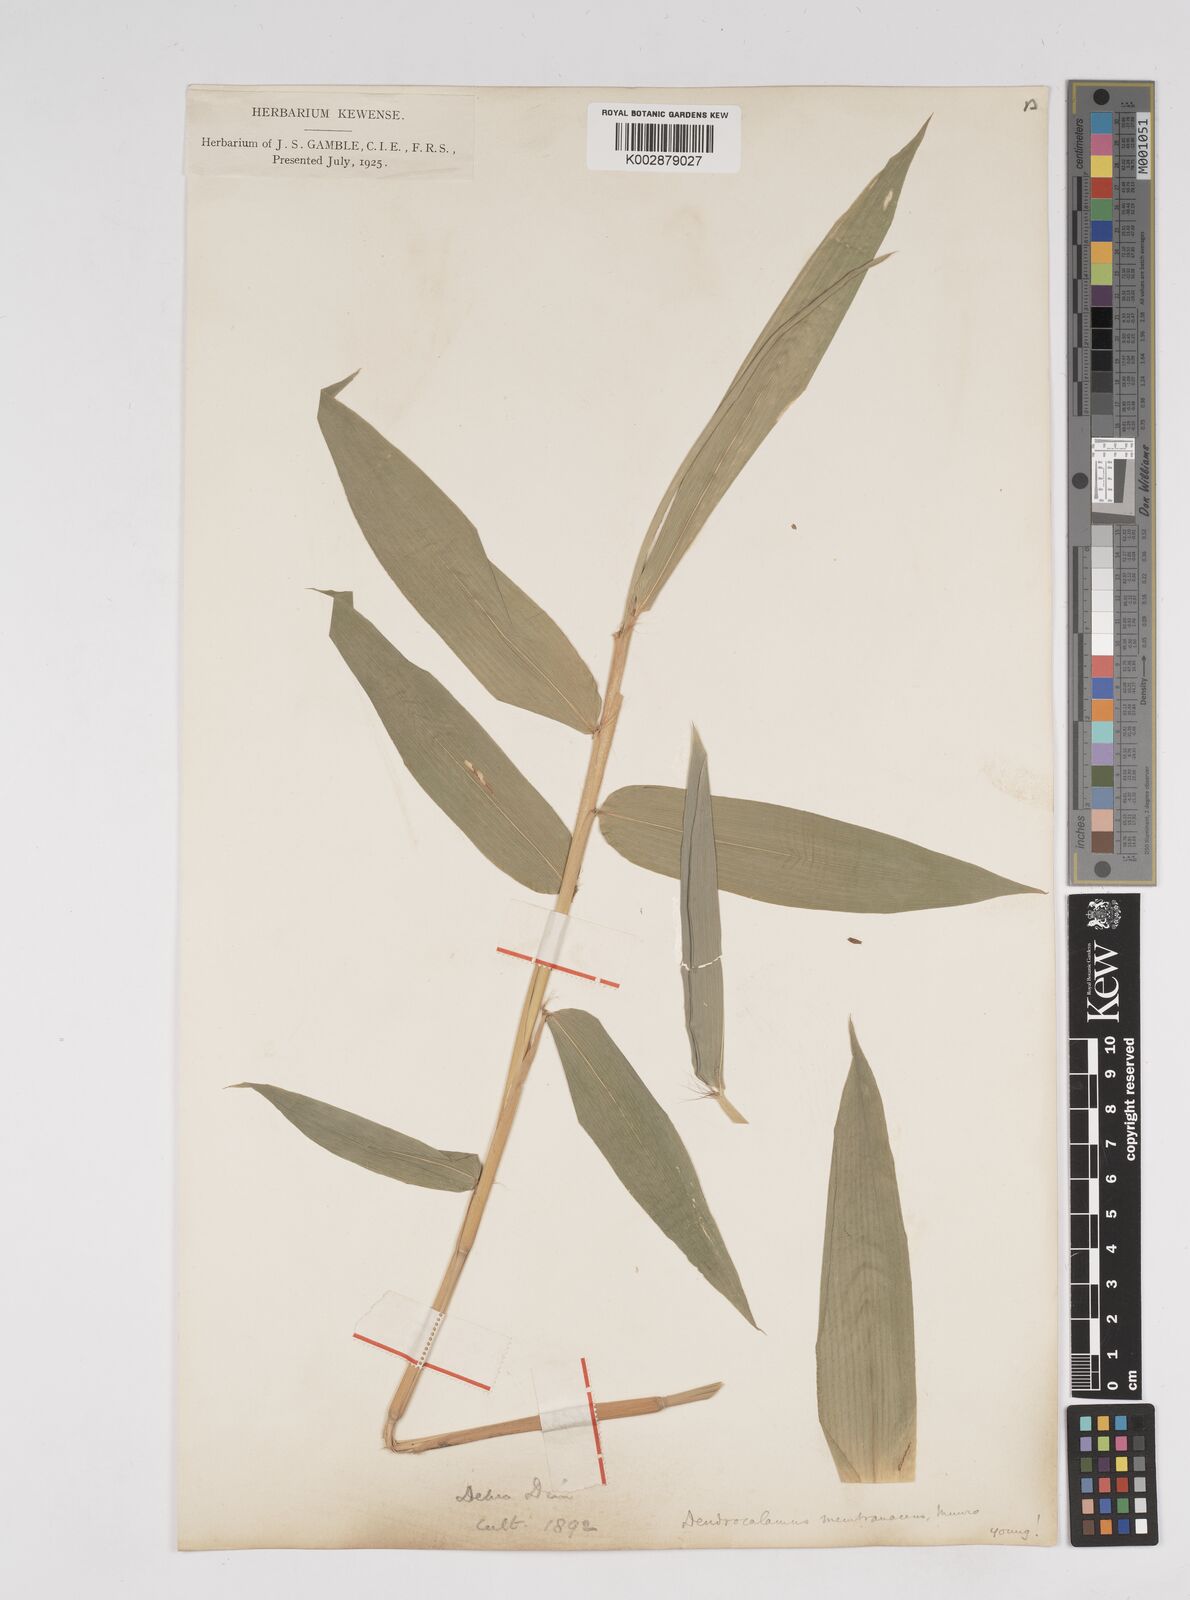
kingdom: Plantae
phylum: Tracheophyta
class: Liliopsida
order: Poales
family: Poaceae
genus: Dendrocalamus
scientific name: Dendrocalamus membranaceus
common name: White bamboo
